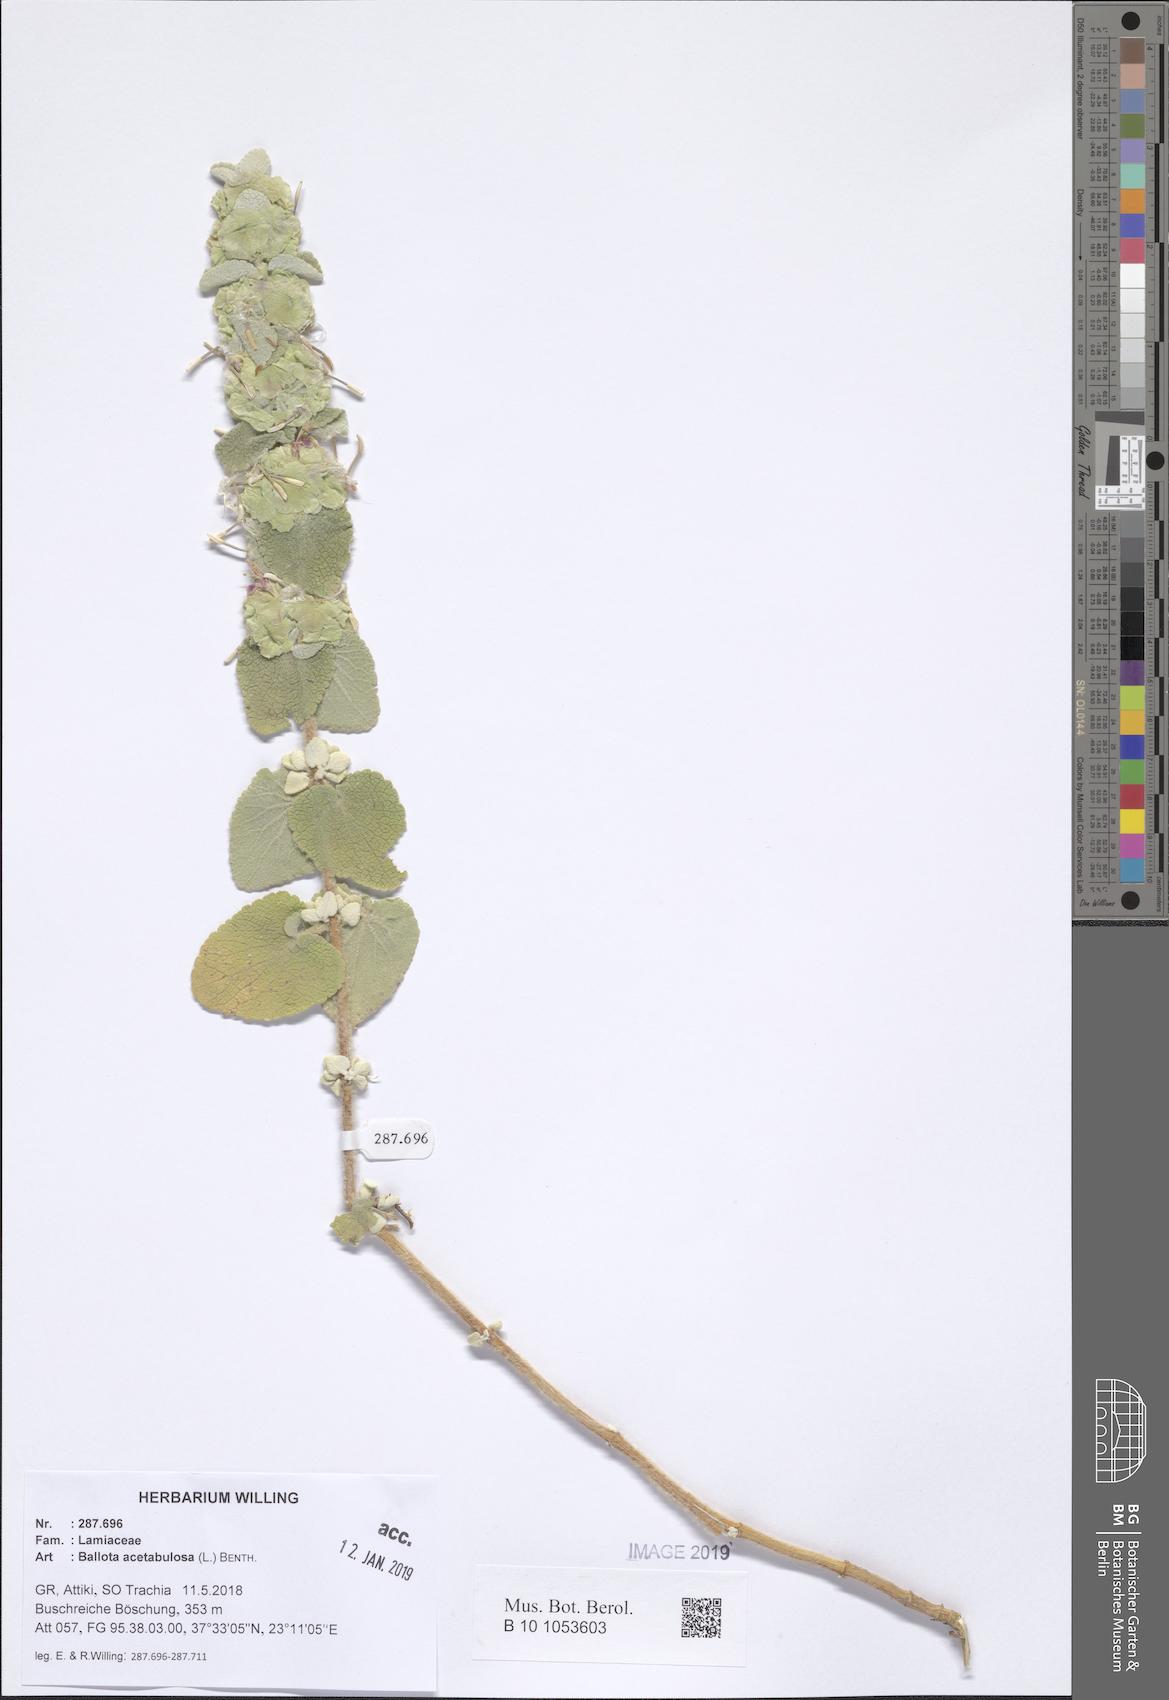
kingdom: Plantae
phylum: Tracheophyta
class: Magnoliopsida
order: Lamiales
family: Lamiaceae
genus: Pseudodictamnus
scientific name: Pseudodictamnus acetabulosus
